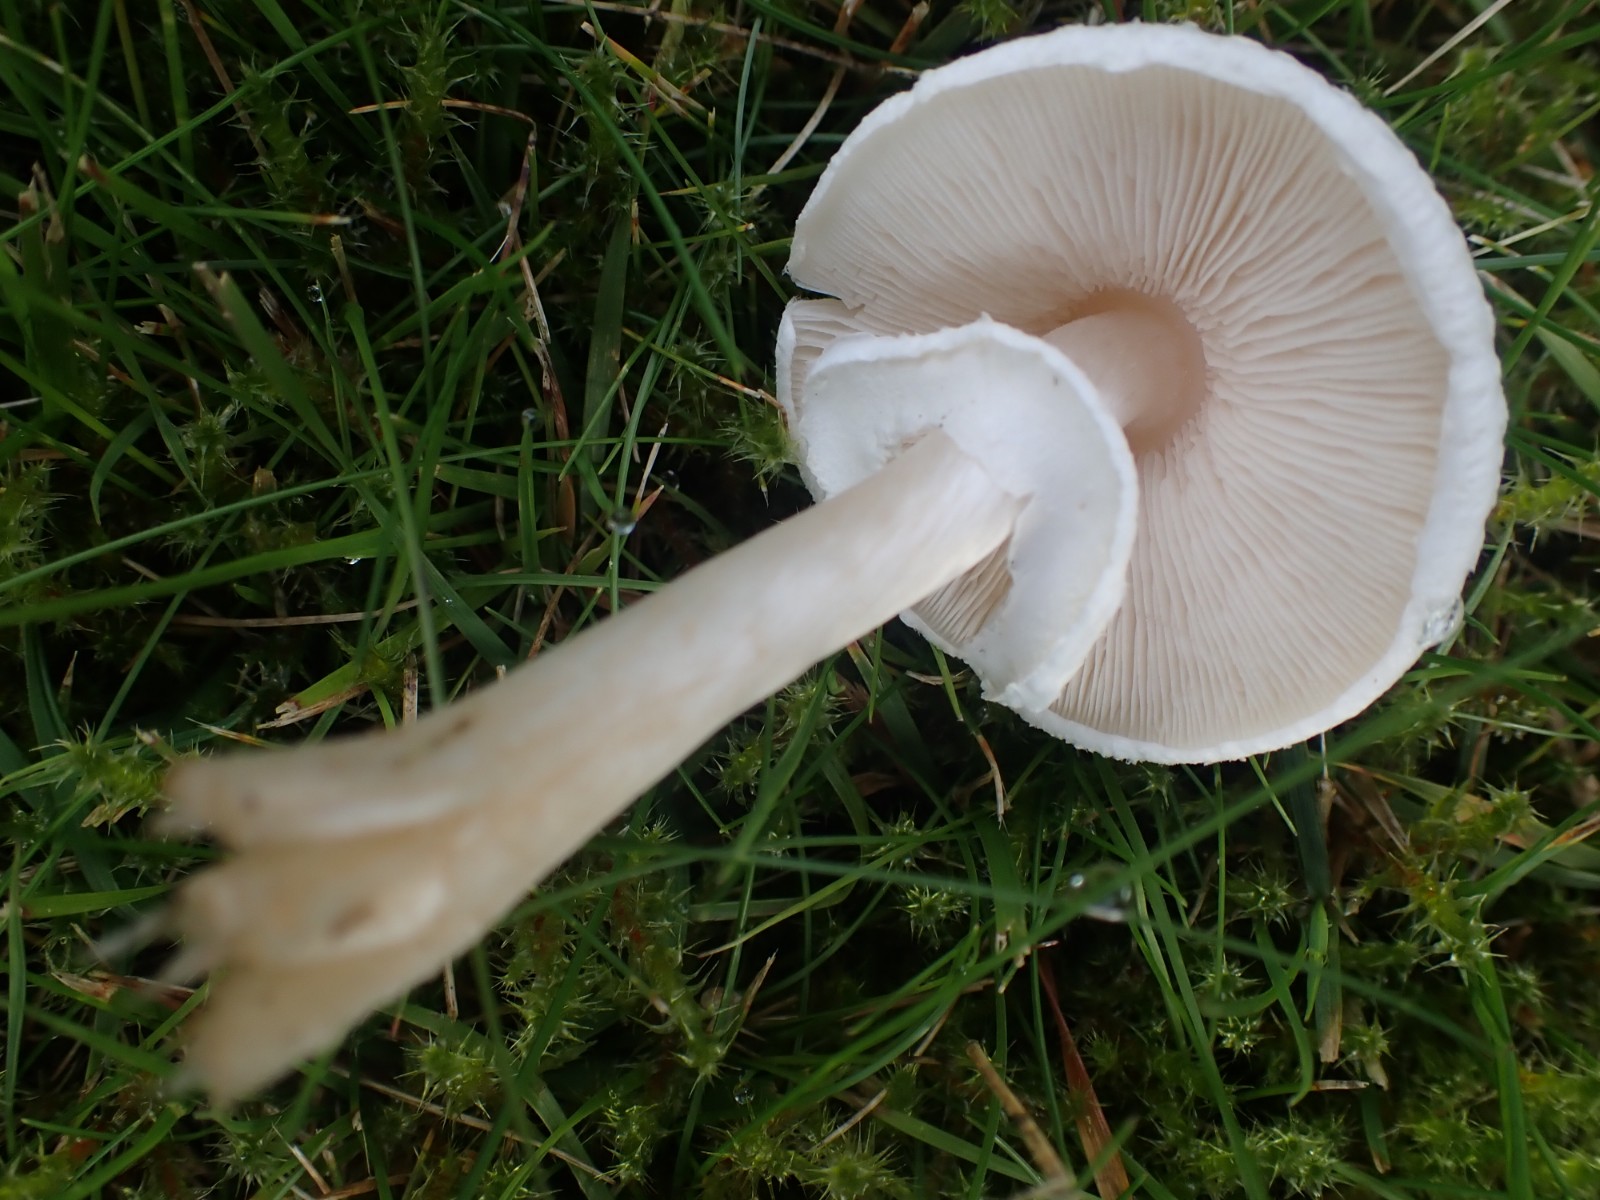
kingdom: Fungi
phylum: Basidiomycota
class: Agaricomycetes
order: Agaricales
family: Agaricaceae
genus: Lepiota
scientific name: Lepiota cristata
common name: stinkende parasolhat
